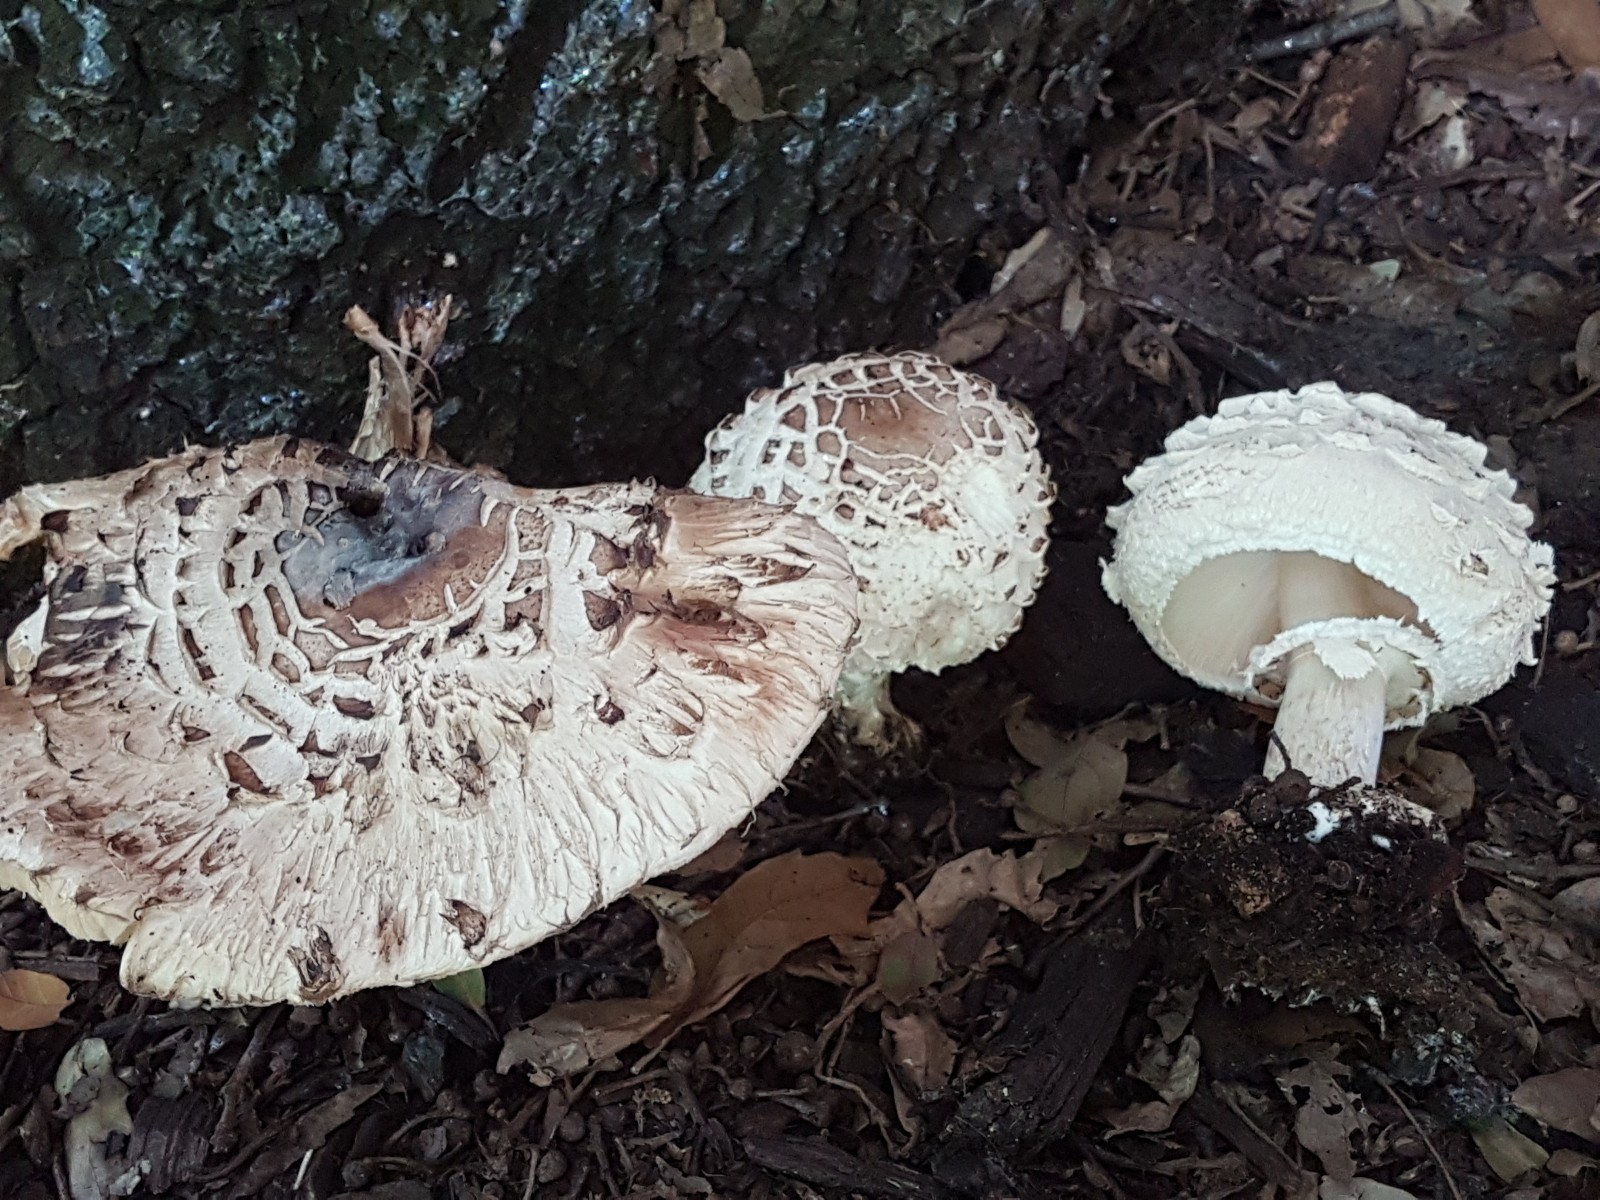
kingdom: Fungi
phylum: Basidiomycota
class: Agaricomycetes
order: Agaricales
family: Agaricaceae
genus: Chlorophyllum
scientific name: Chlorophyllum brunneum
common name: giftig rabarberhat
